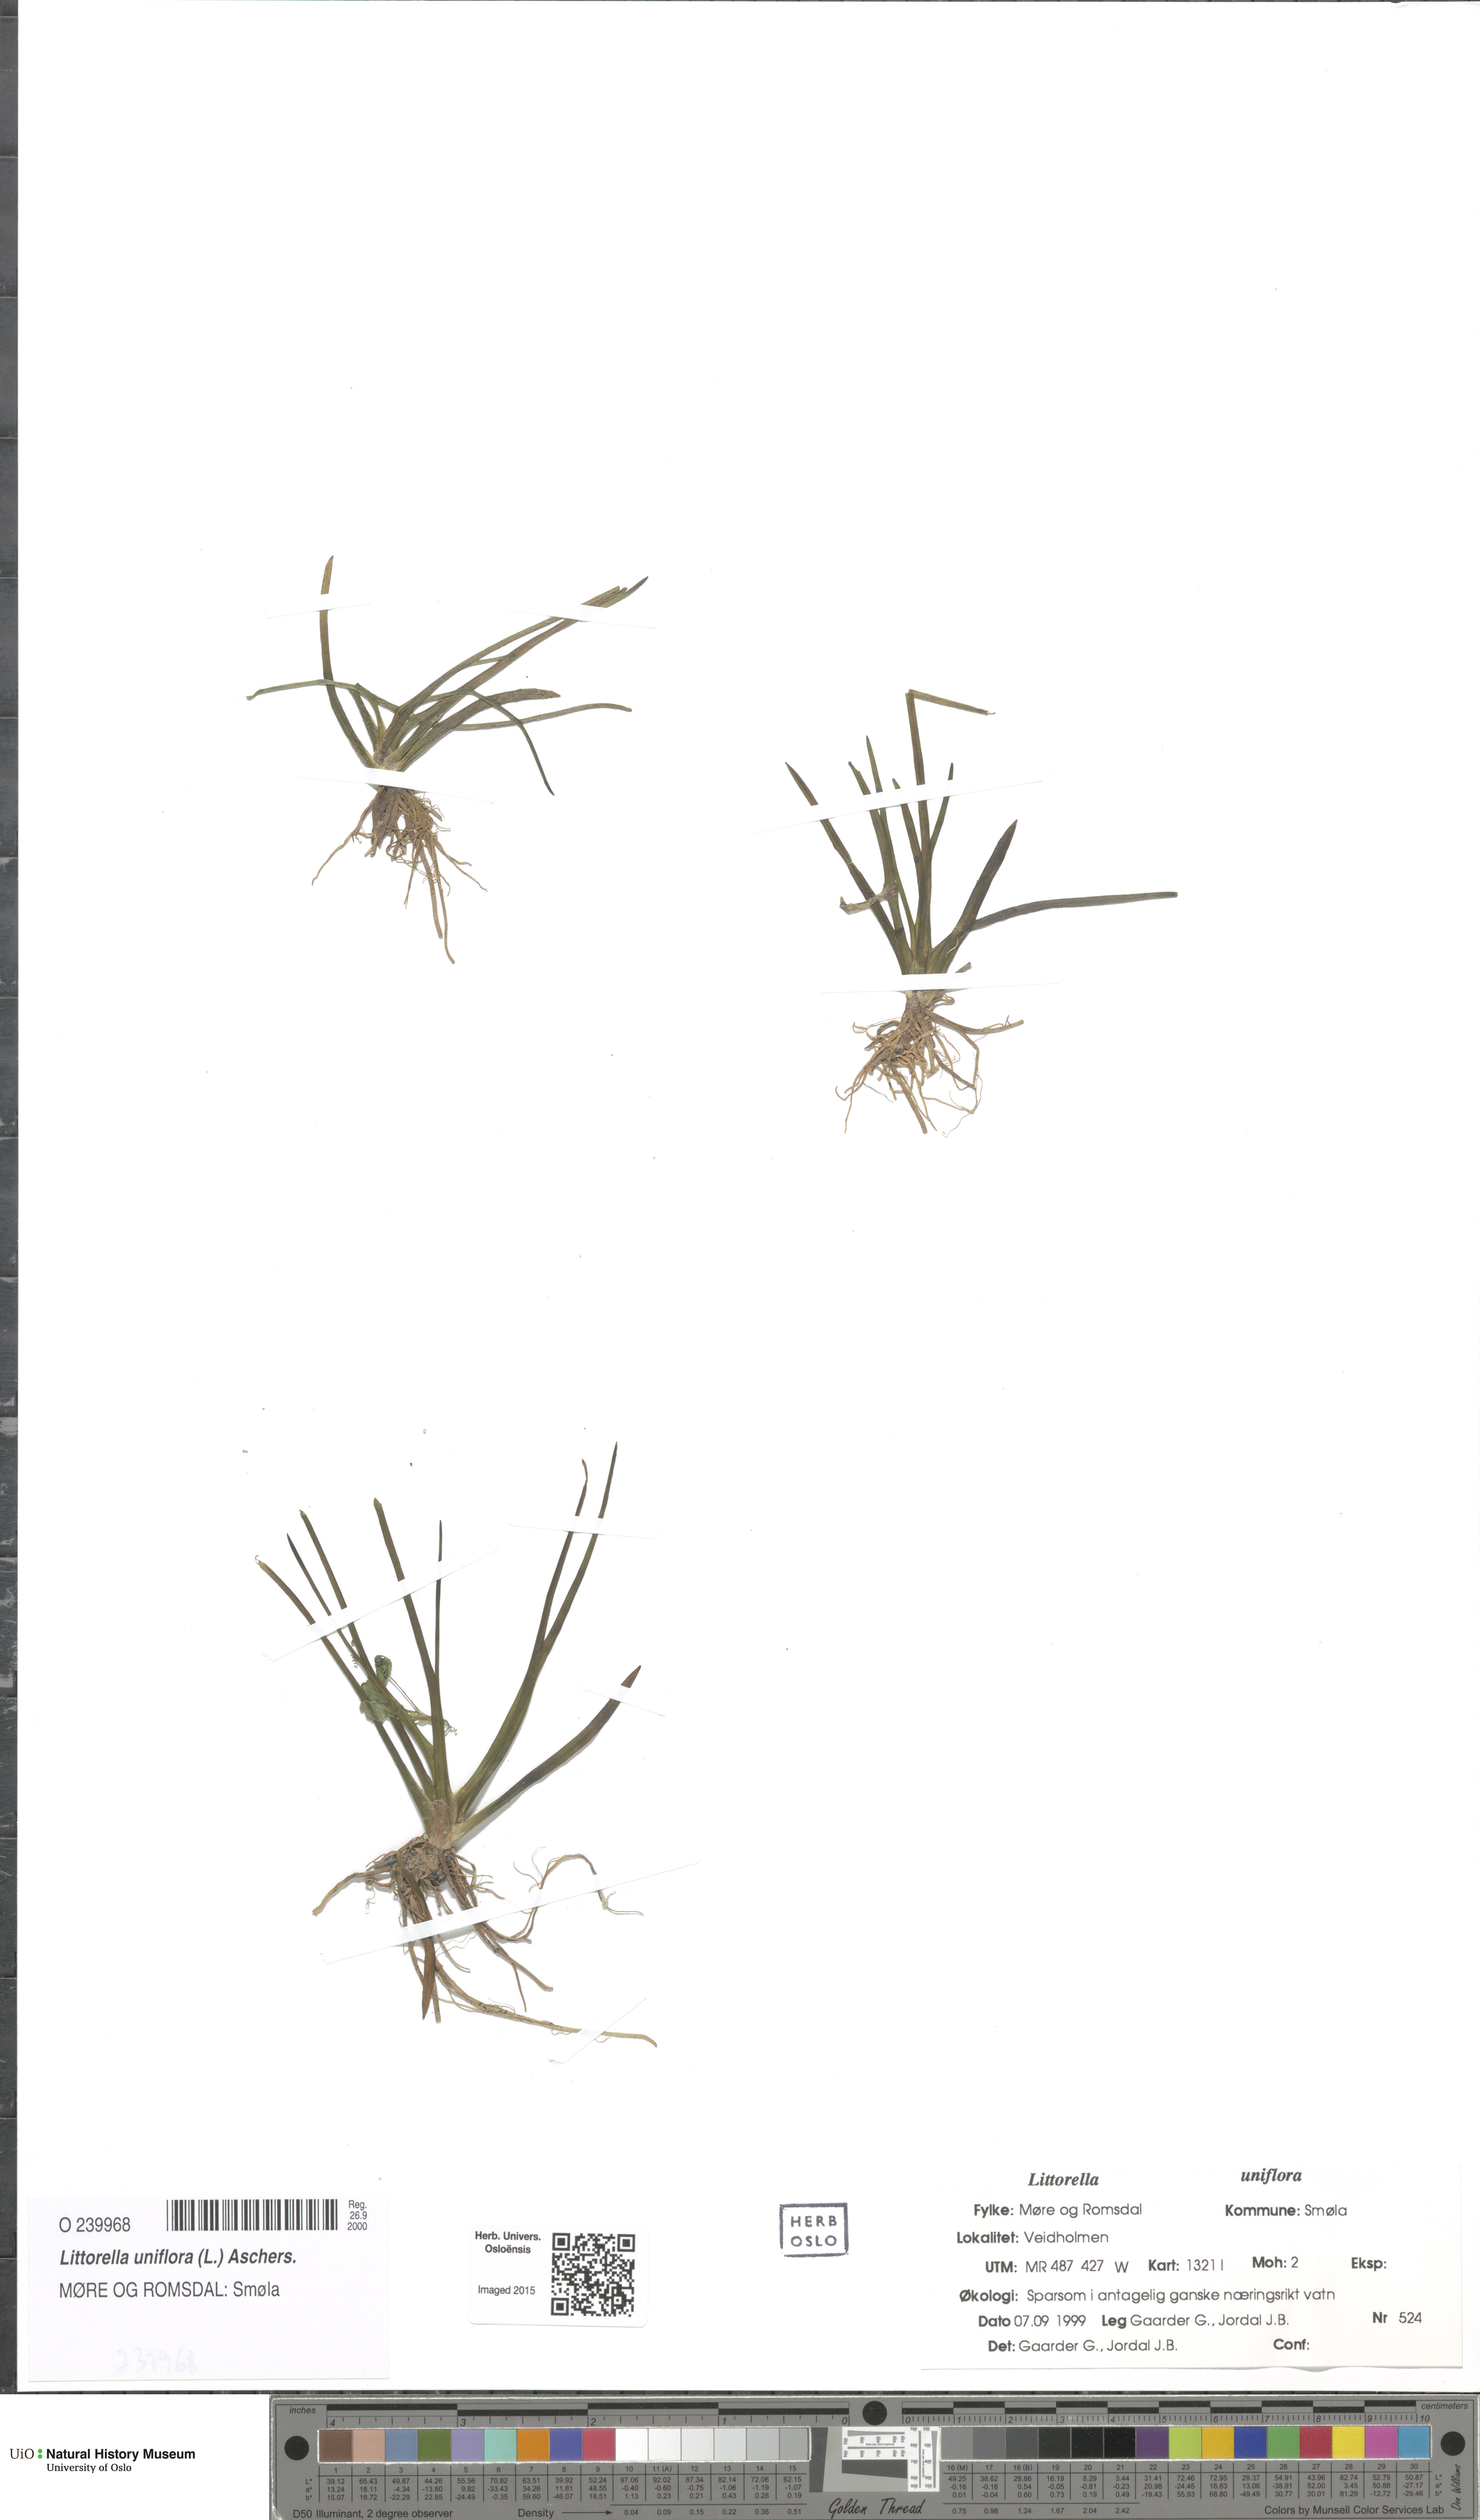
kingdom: Plantae
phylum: Tracheophyta
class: Magnoliopsida
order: Lamiales
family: Plantaginaceae
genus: Littorella
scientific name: Littorella uniflora
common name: Shoreweed
